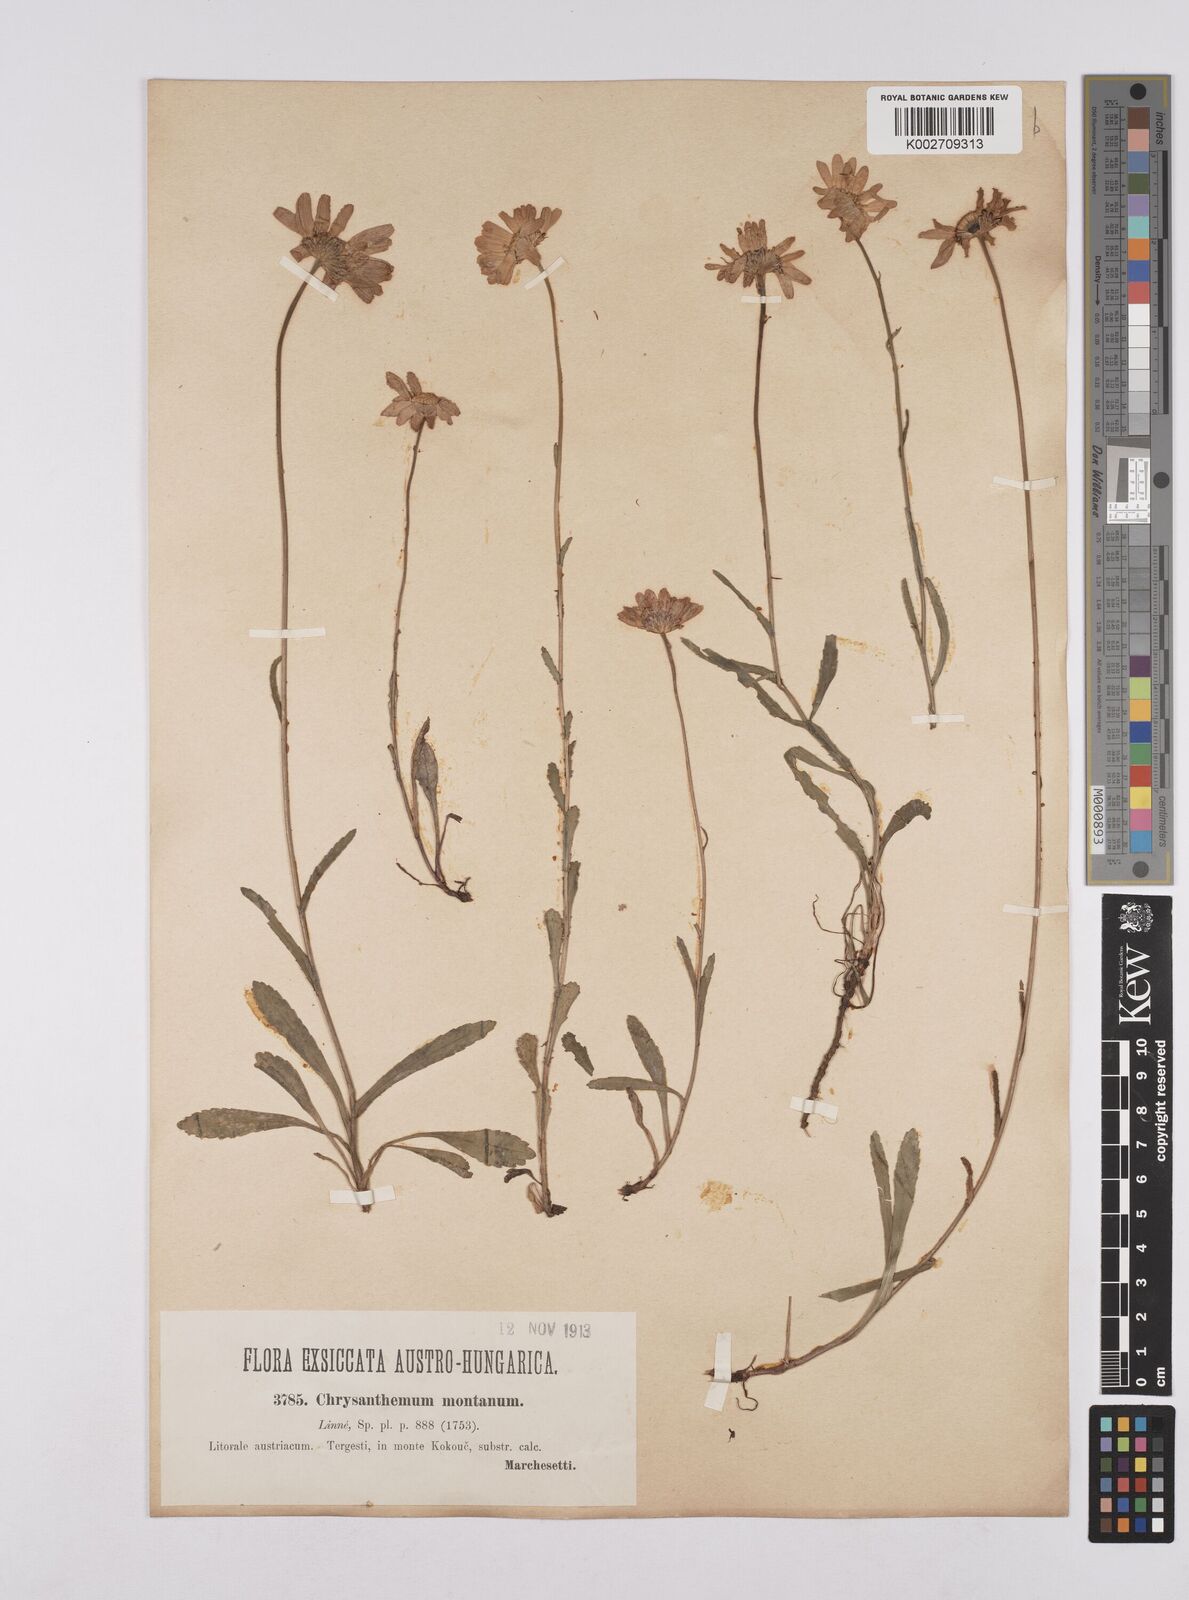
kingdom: Plantae
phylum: Tracheophyta
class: Magnoliopsida
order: Asterales
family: Asteraceae
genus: Leucanthemum
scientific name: Leucanthemum heterophyllum
